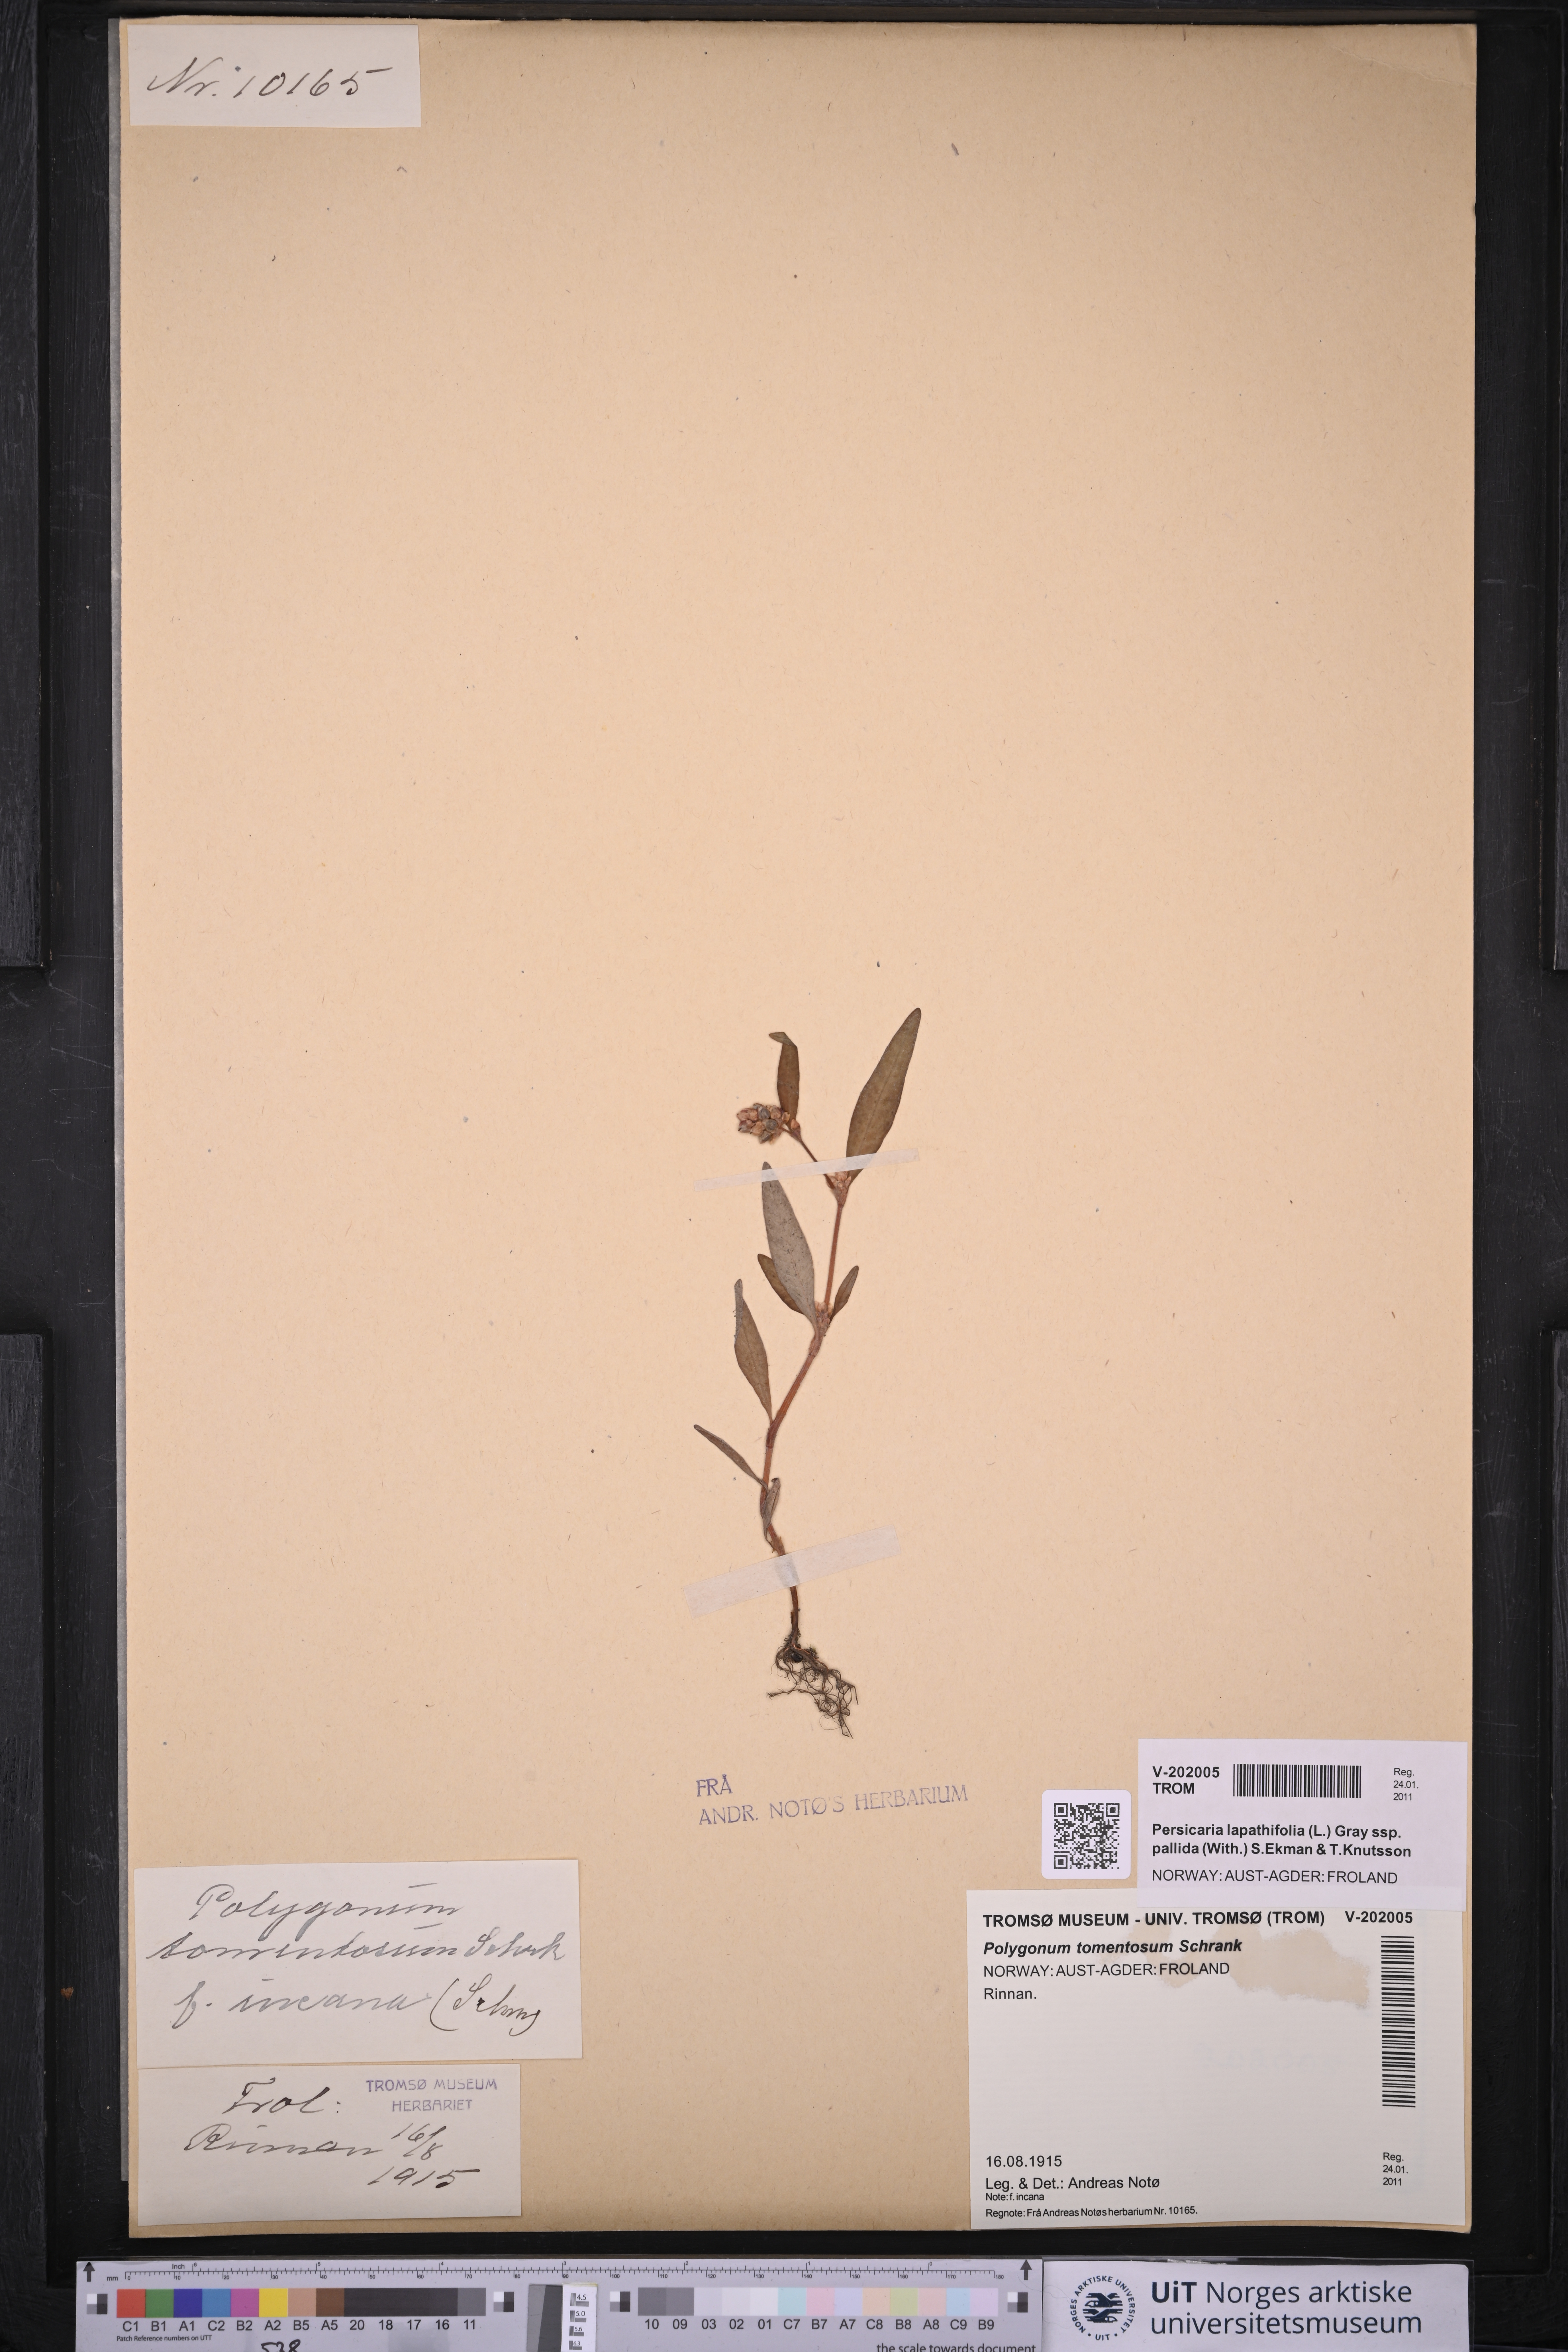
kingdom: Plantae
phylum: Tracheophyta
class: Magnoliopsida
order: Caryophyllales
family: Polygonaceae
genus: Persicaria
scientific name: Persicaria lapathifolia
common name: Curlytop knotweed
